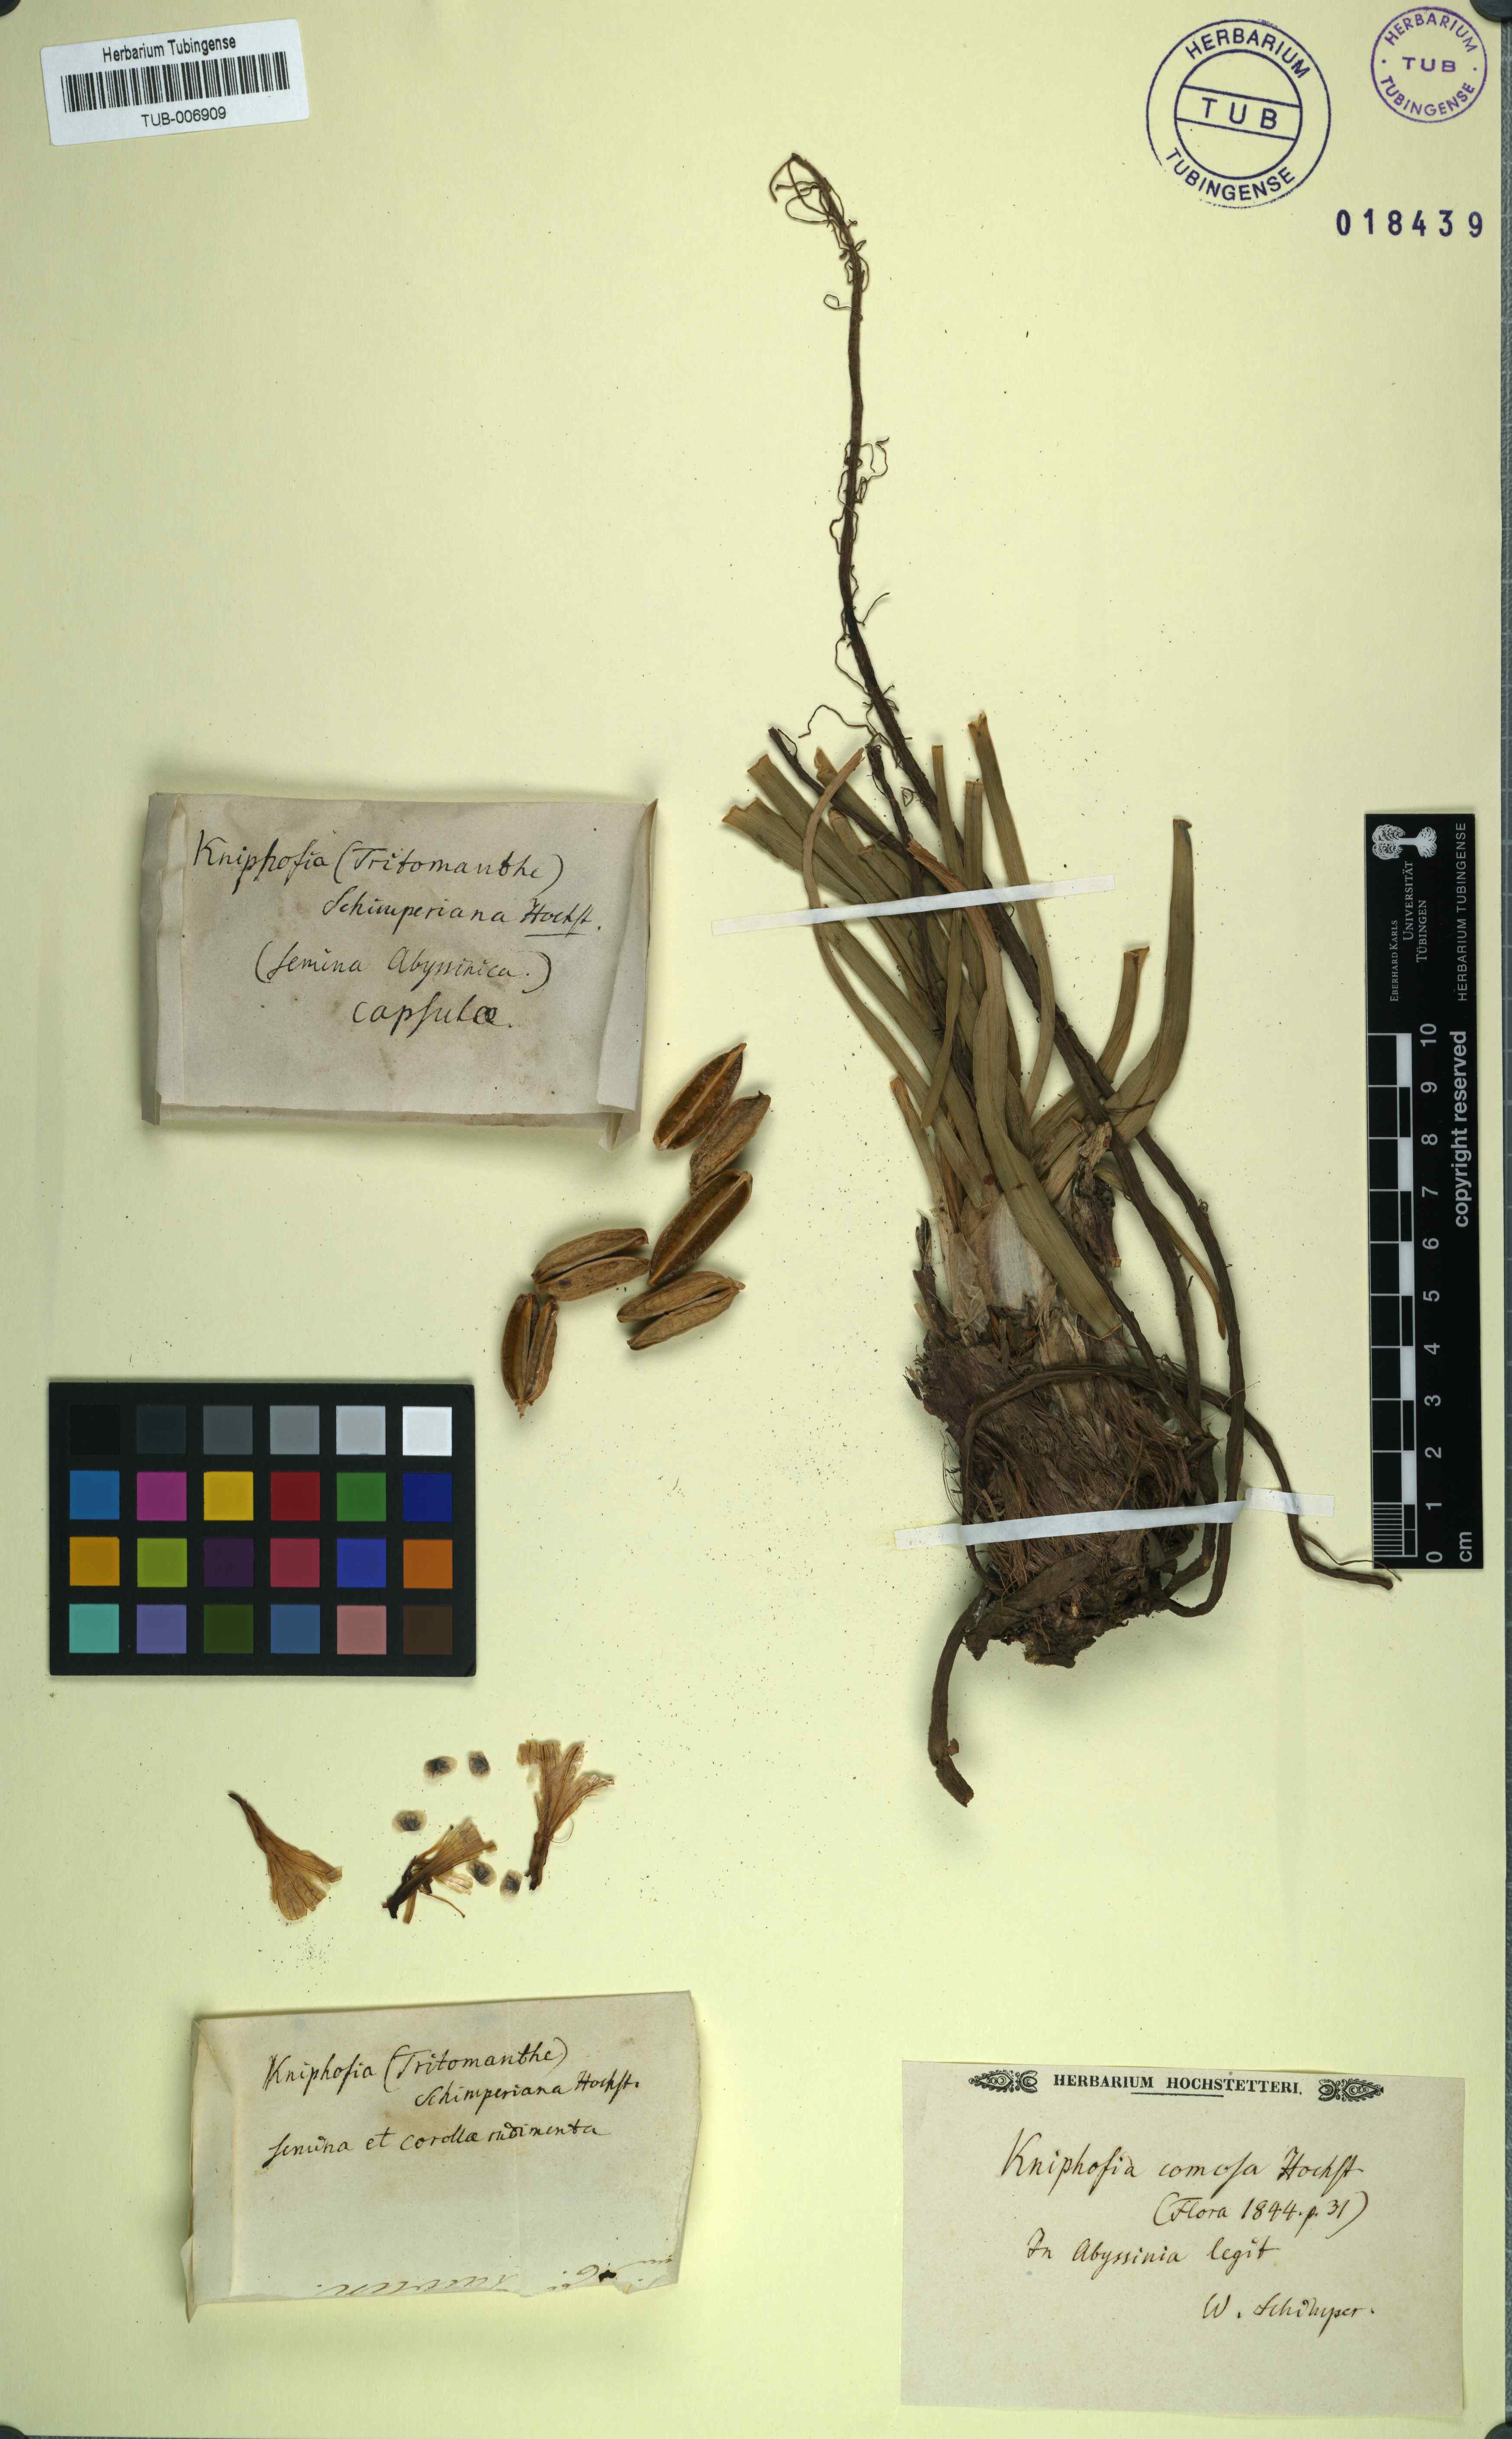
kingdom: Plantae
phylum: Tracheophyta
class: Liliopsida
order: Asparagales
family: Asphodelaceae
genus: Kniphofia
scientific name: Kniphofia pumila
